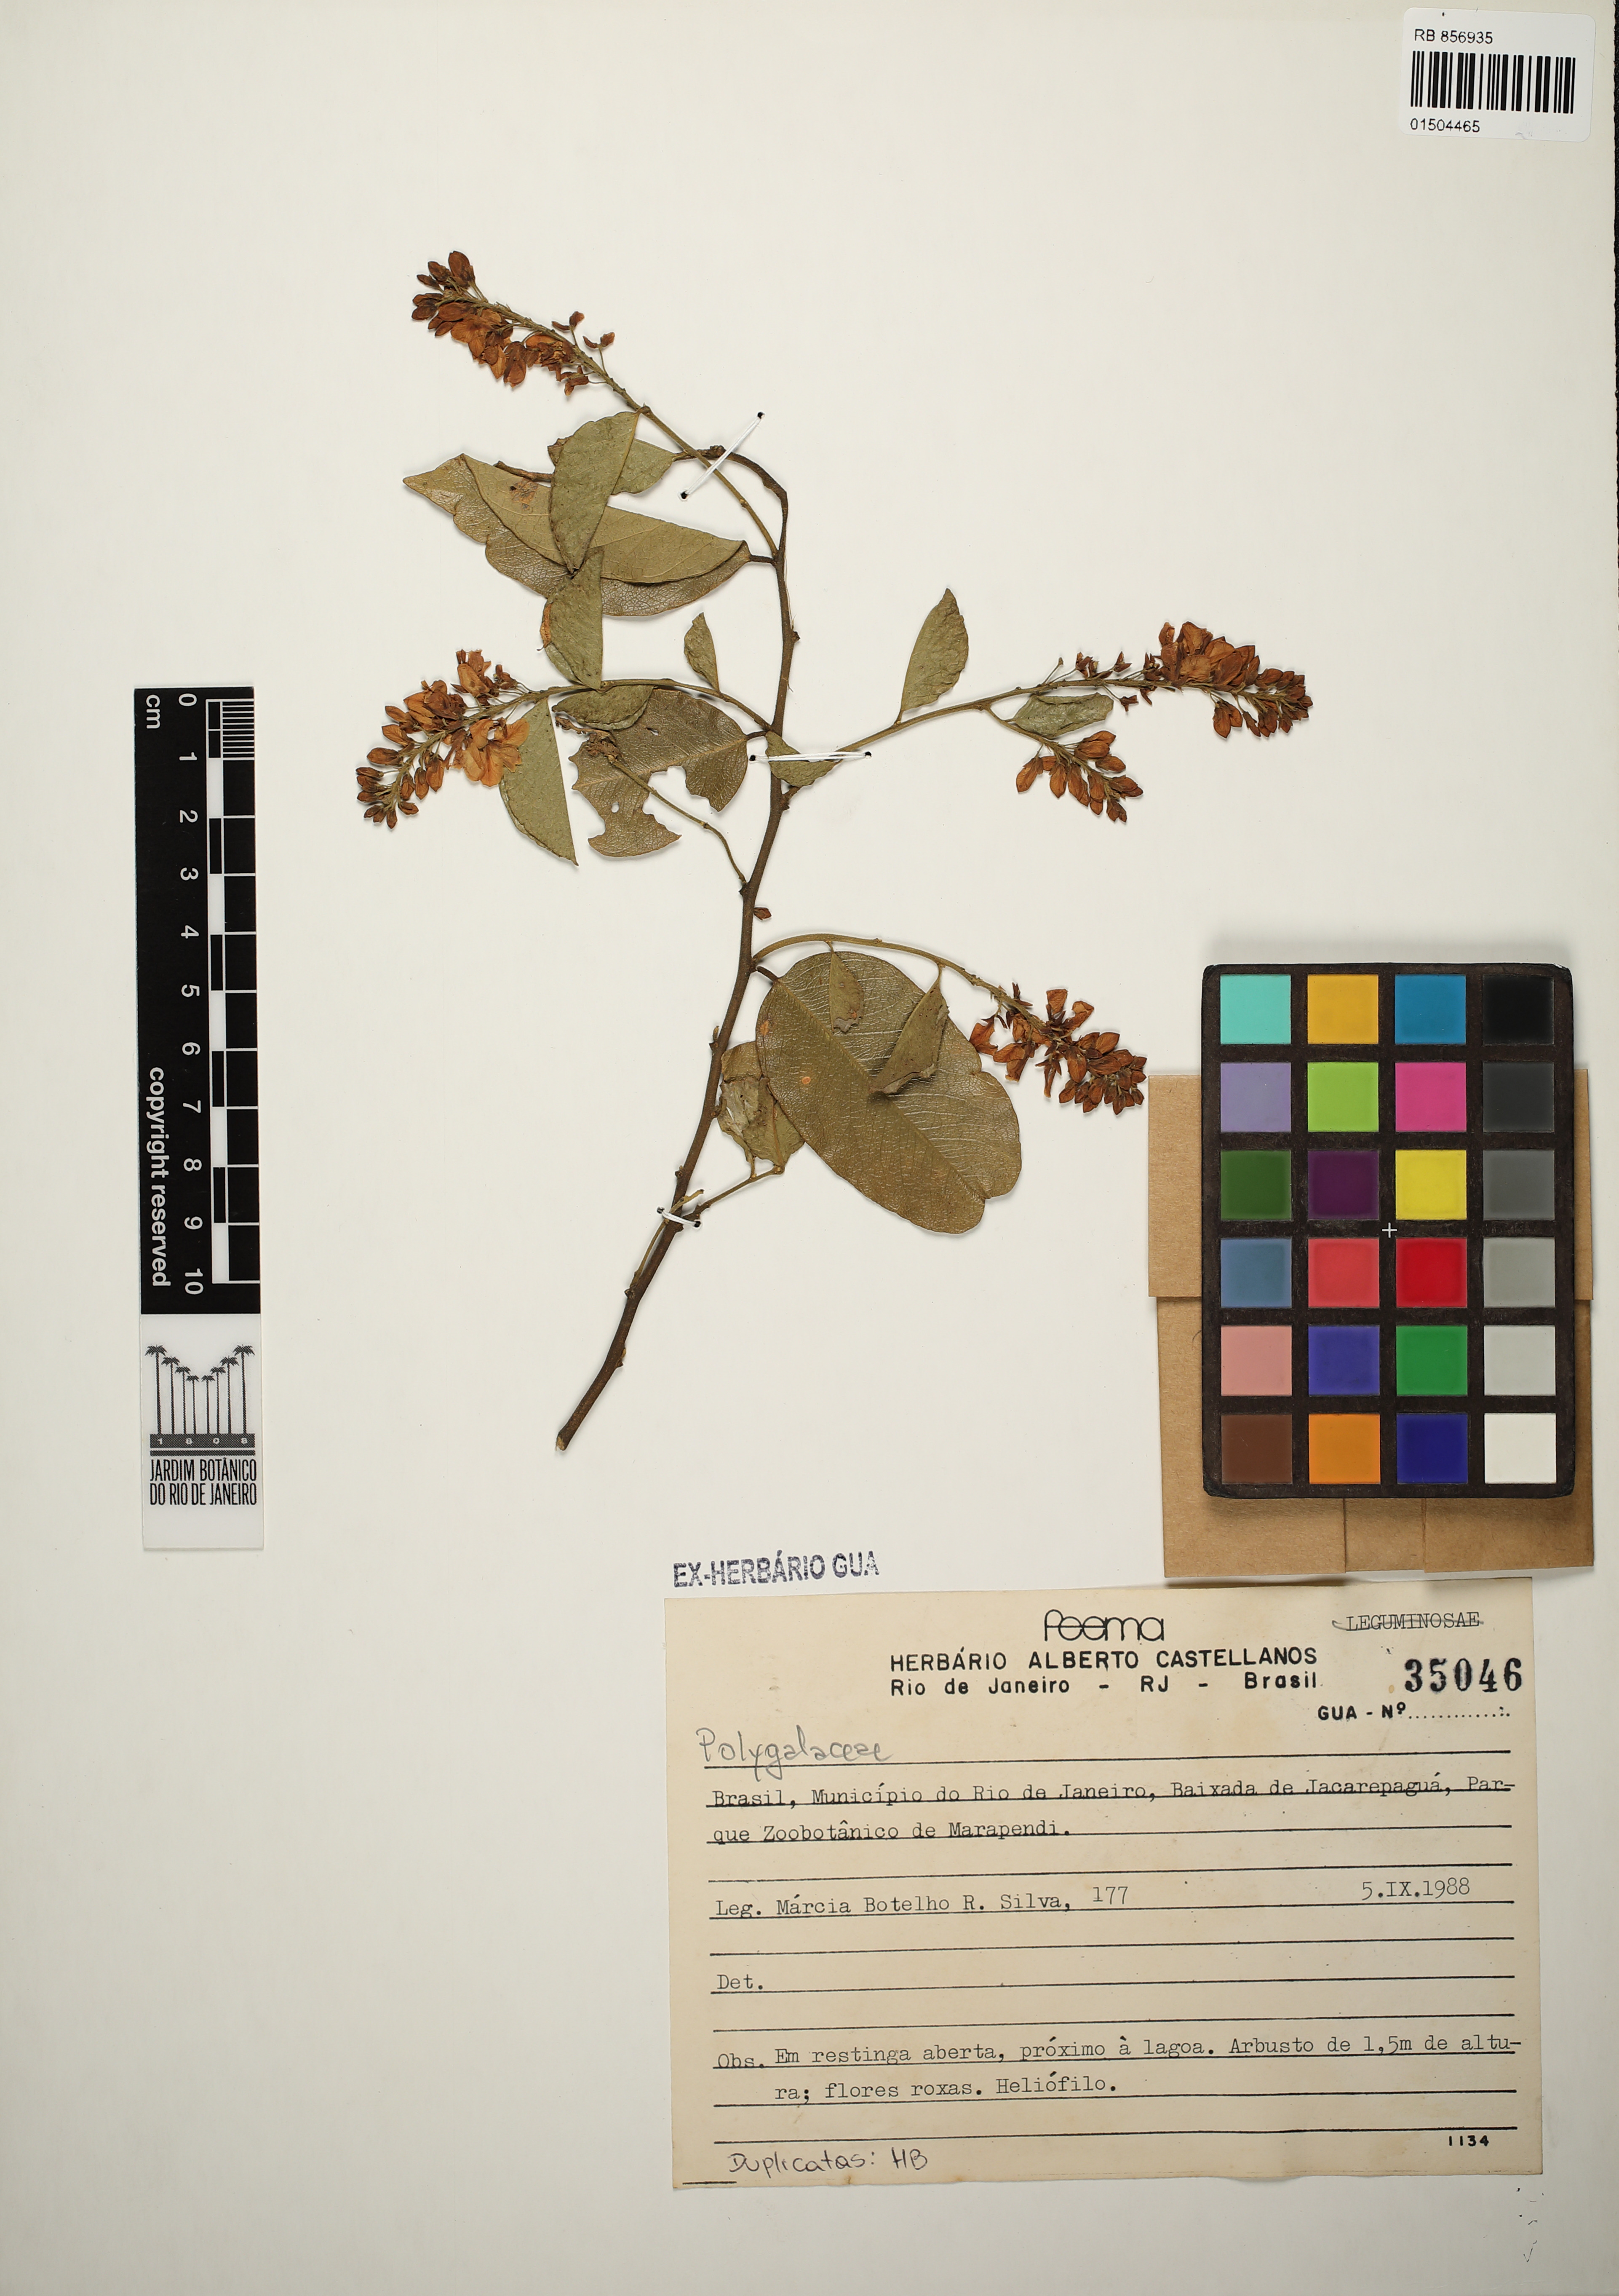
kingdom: Plantae
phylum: Tracheophyta
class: Magnoliopsida
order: Fabales
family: Polygalaceae
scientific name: Polygalaceae
